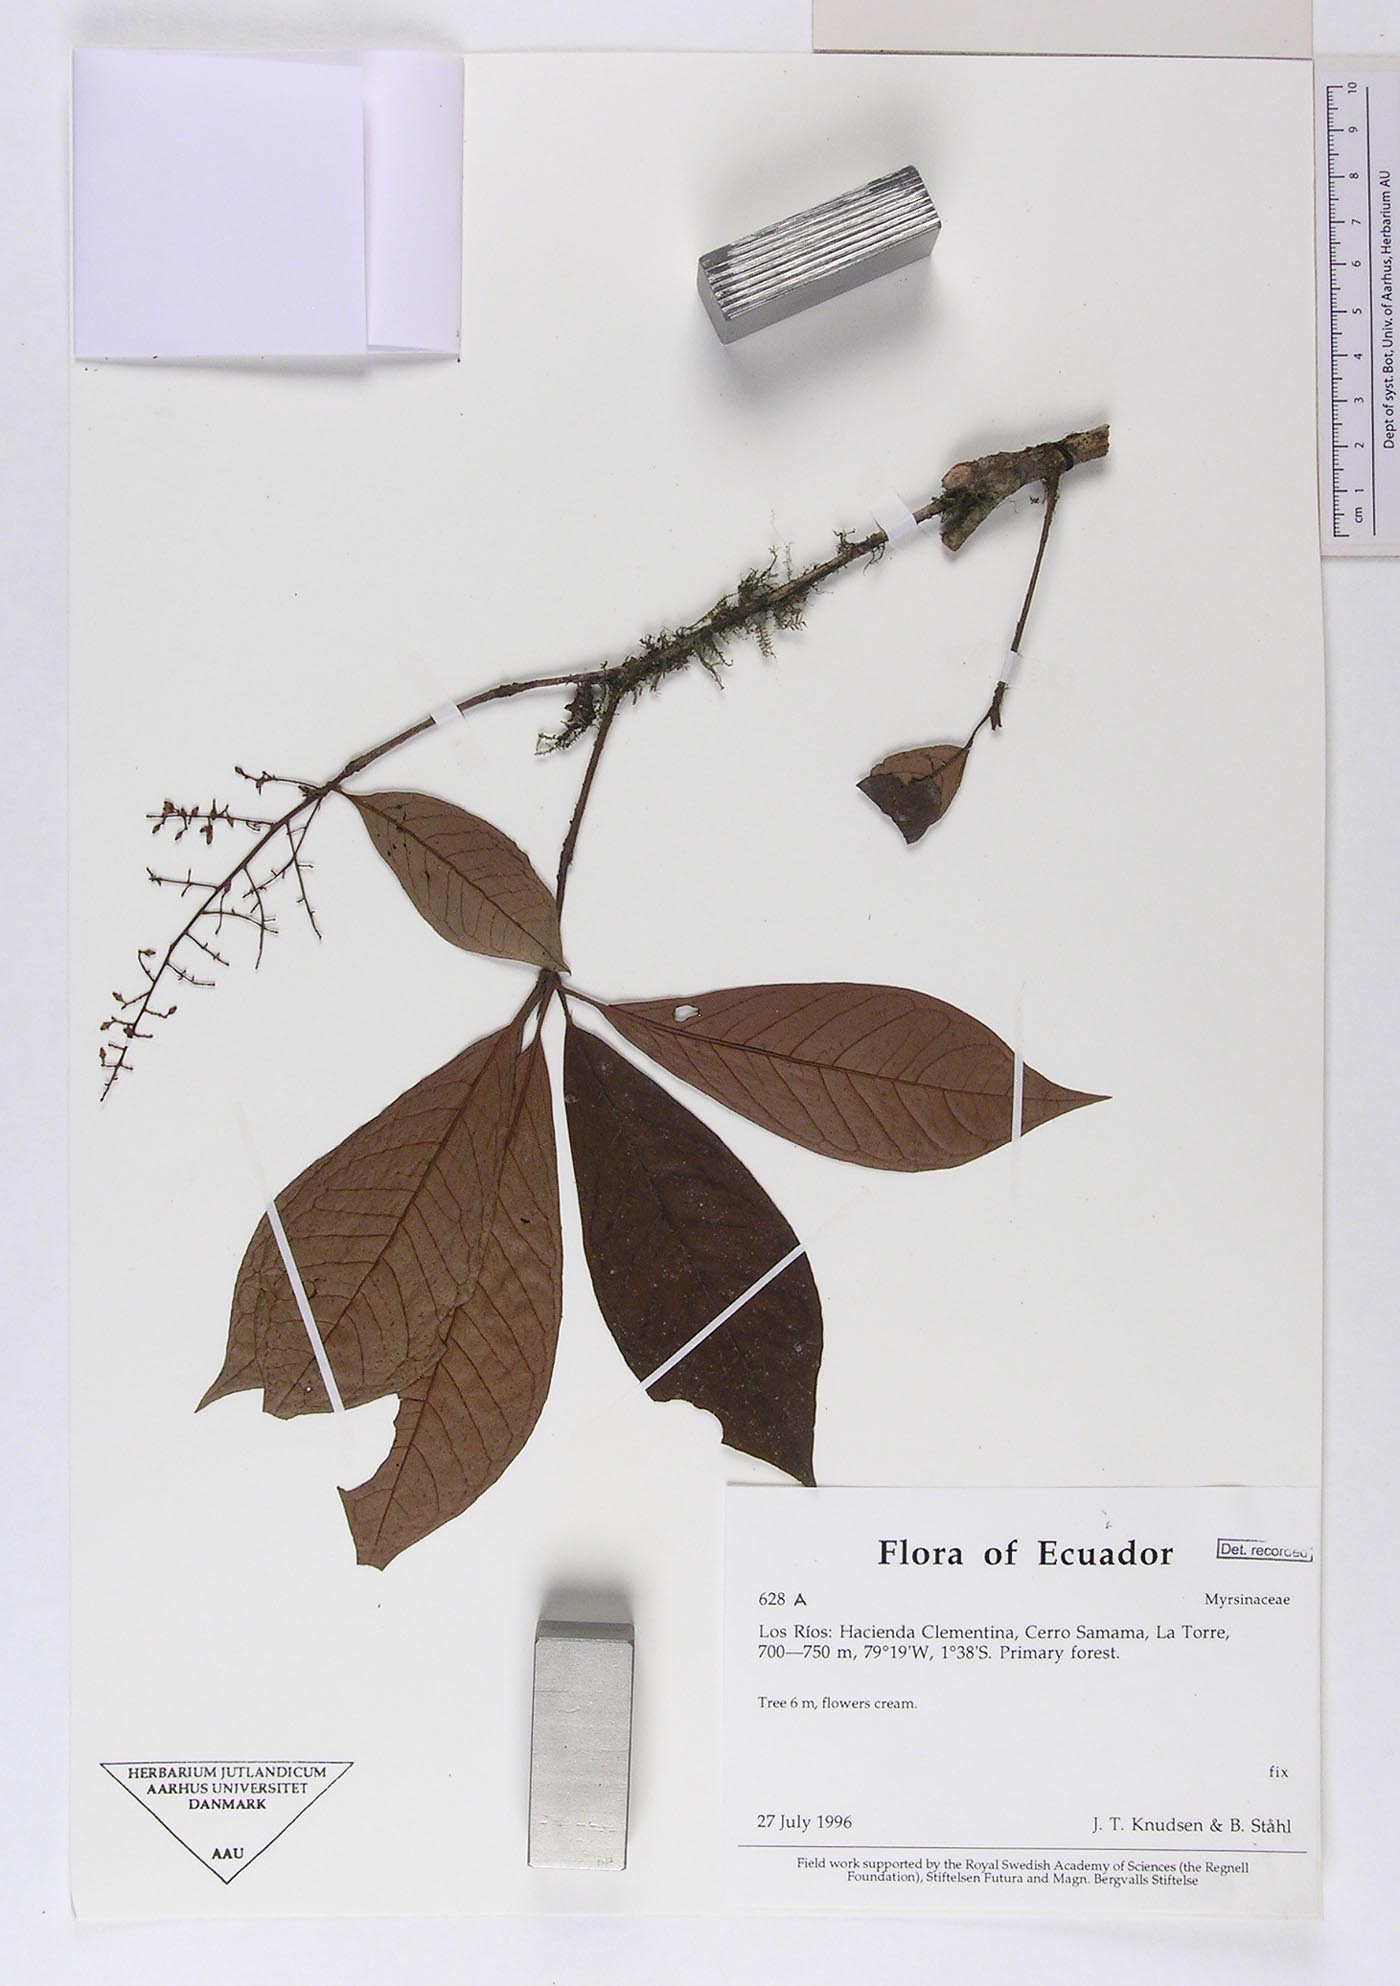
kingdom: Plantae
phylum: Tracheophyta
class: Magnoliopsida
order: Ericales
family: Primulaceae
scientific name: Primulaceae
